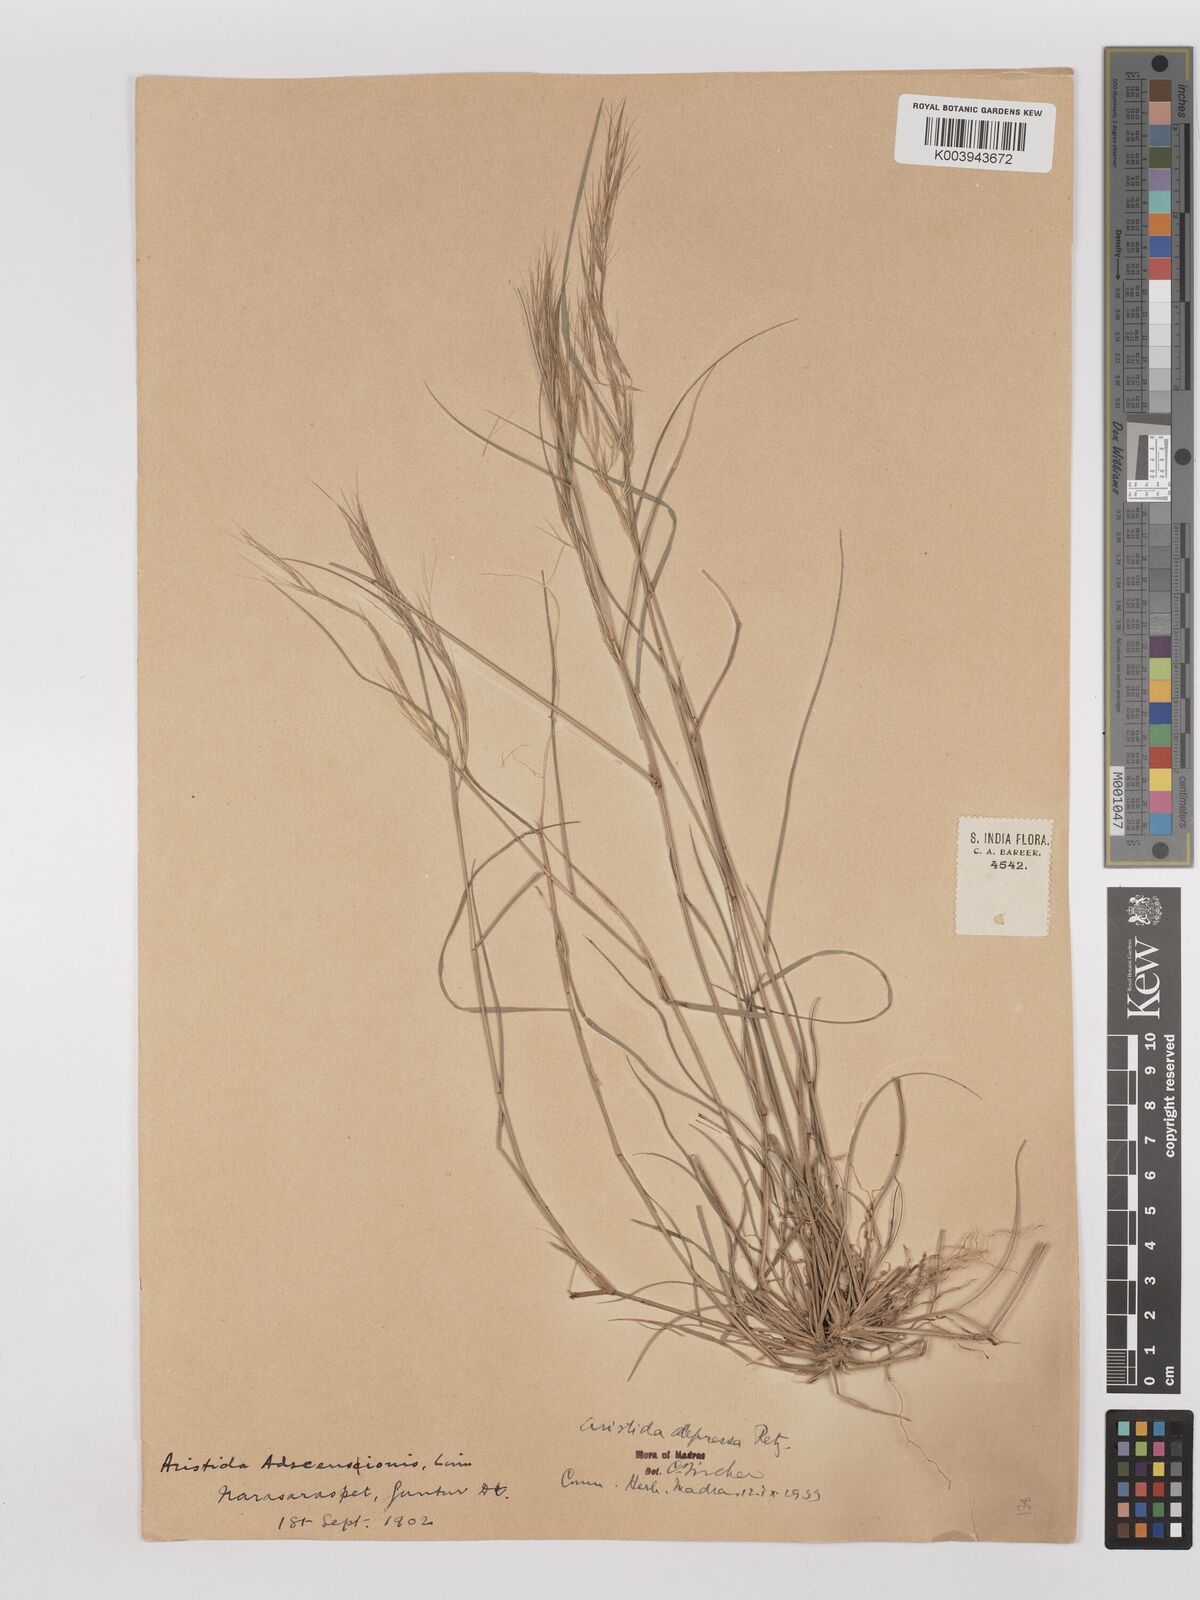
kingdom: Plantae
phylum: Tracheophyta
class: Liliopsida
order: Poales
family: Poaceae
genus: Aristida
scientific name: Aristida adscensionis
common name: Sixweeks threeawn
